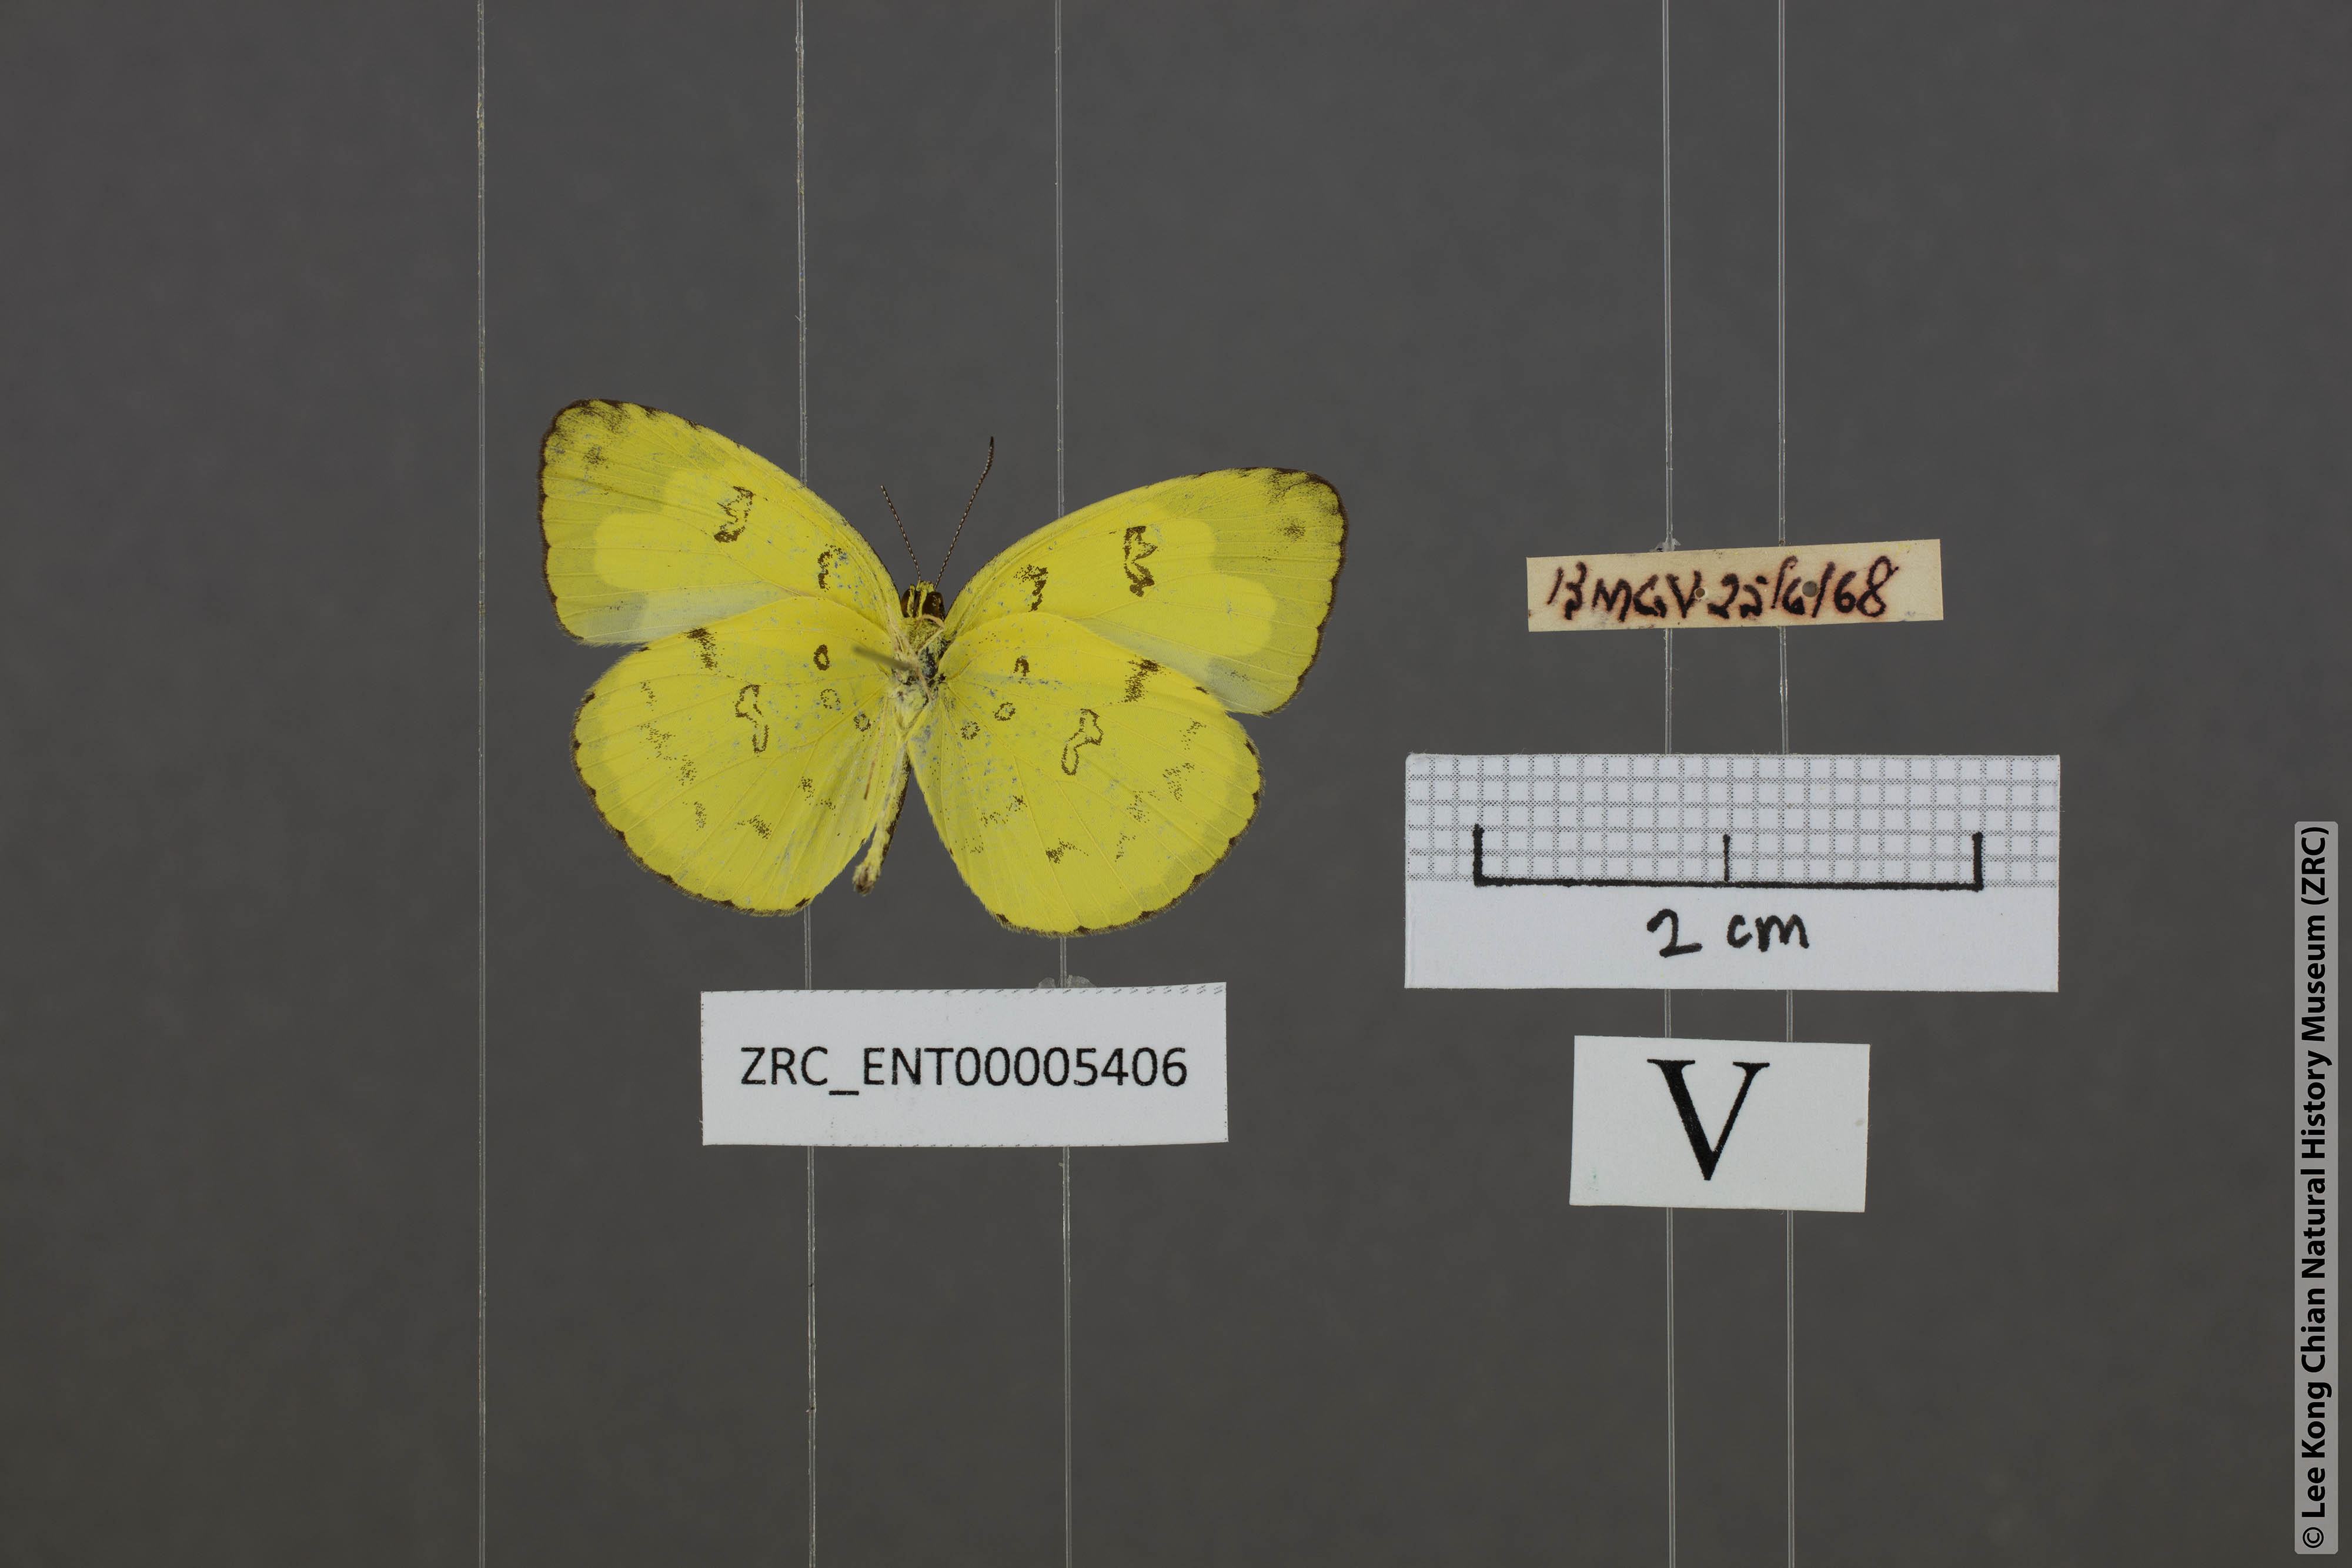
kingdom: Animalia
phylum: Arthropoda
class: Insecta
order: Lepidoptera
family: Pieridae
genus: Eurema
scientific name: Eurema andersoni
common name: One-spot yellow grass
